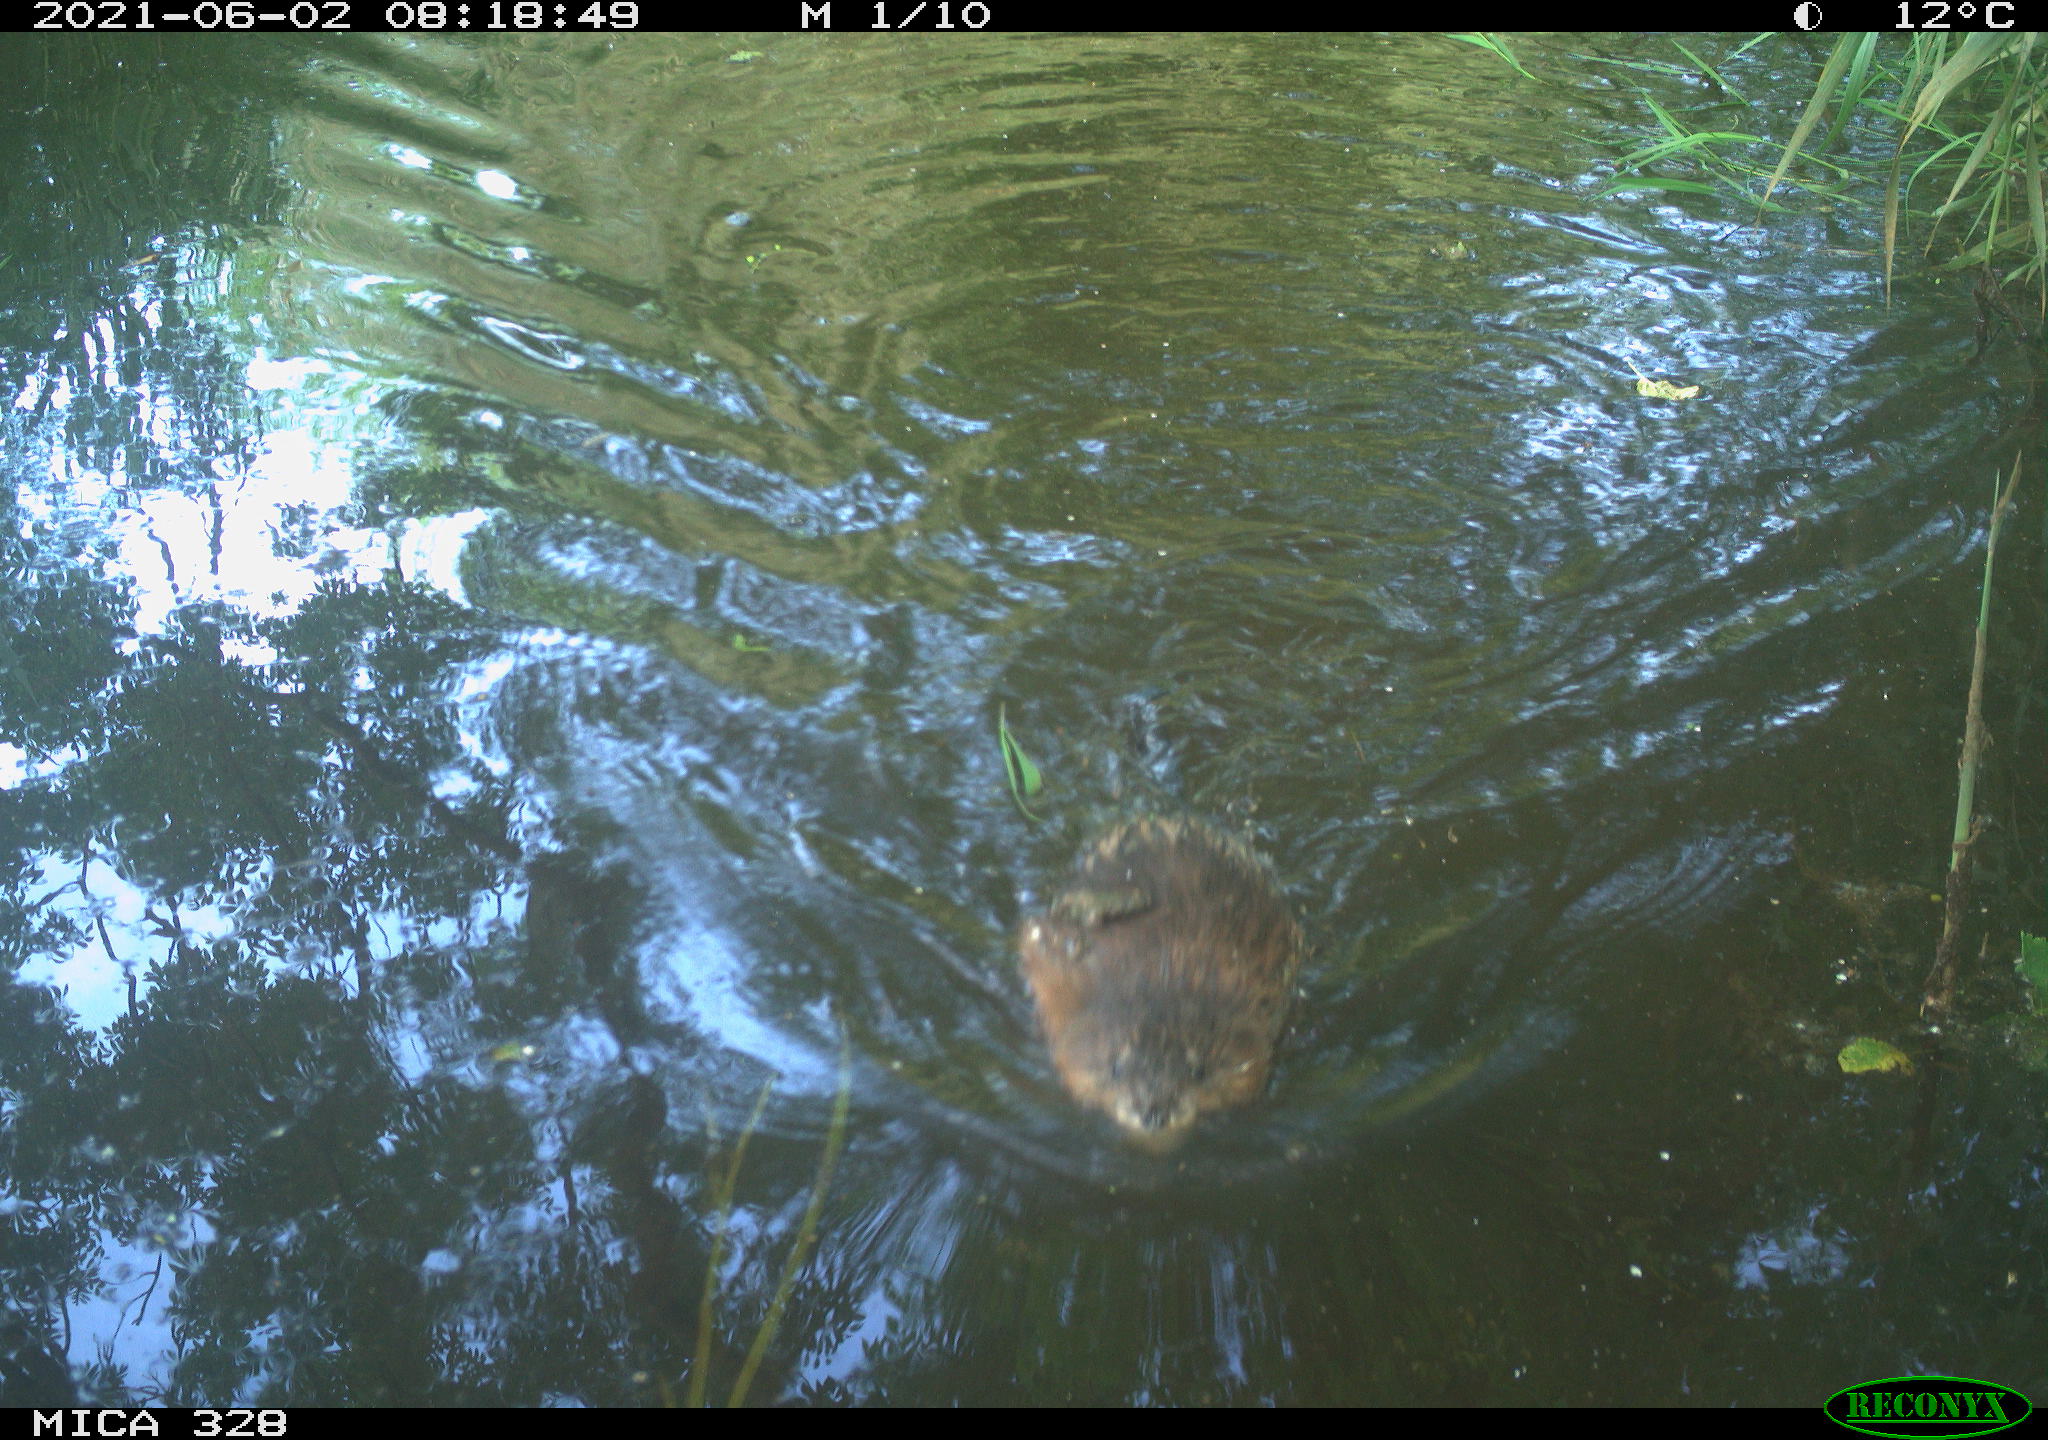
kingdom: Animalia
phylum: Chordata
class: Mammalia
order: Rodentia
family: Cricetidae
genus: Ondatra
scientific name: Ondatra zibethicus
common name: Muskrat
